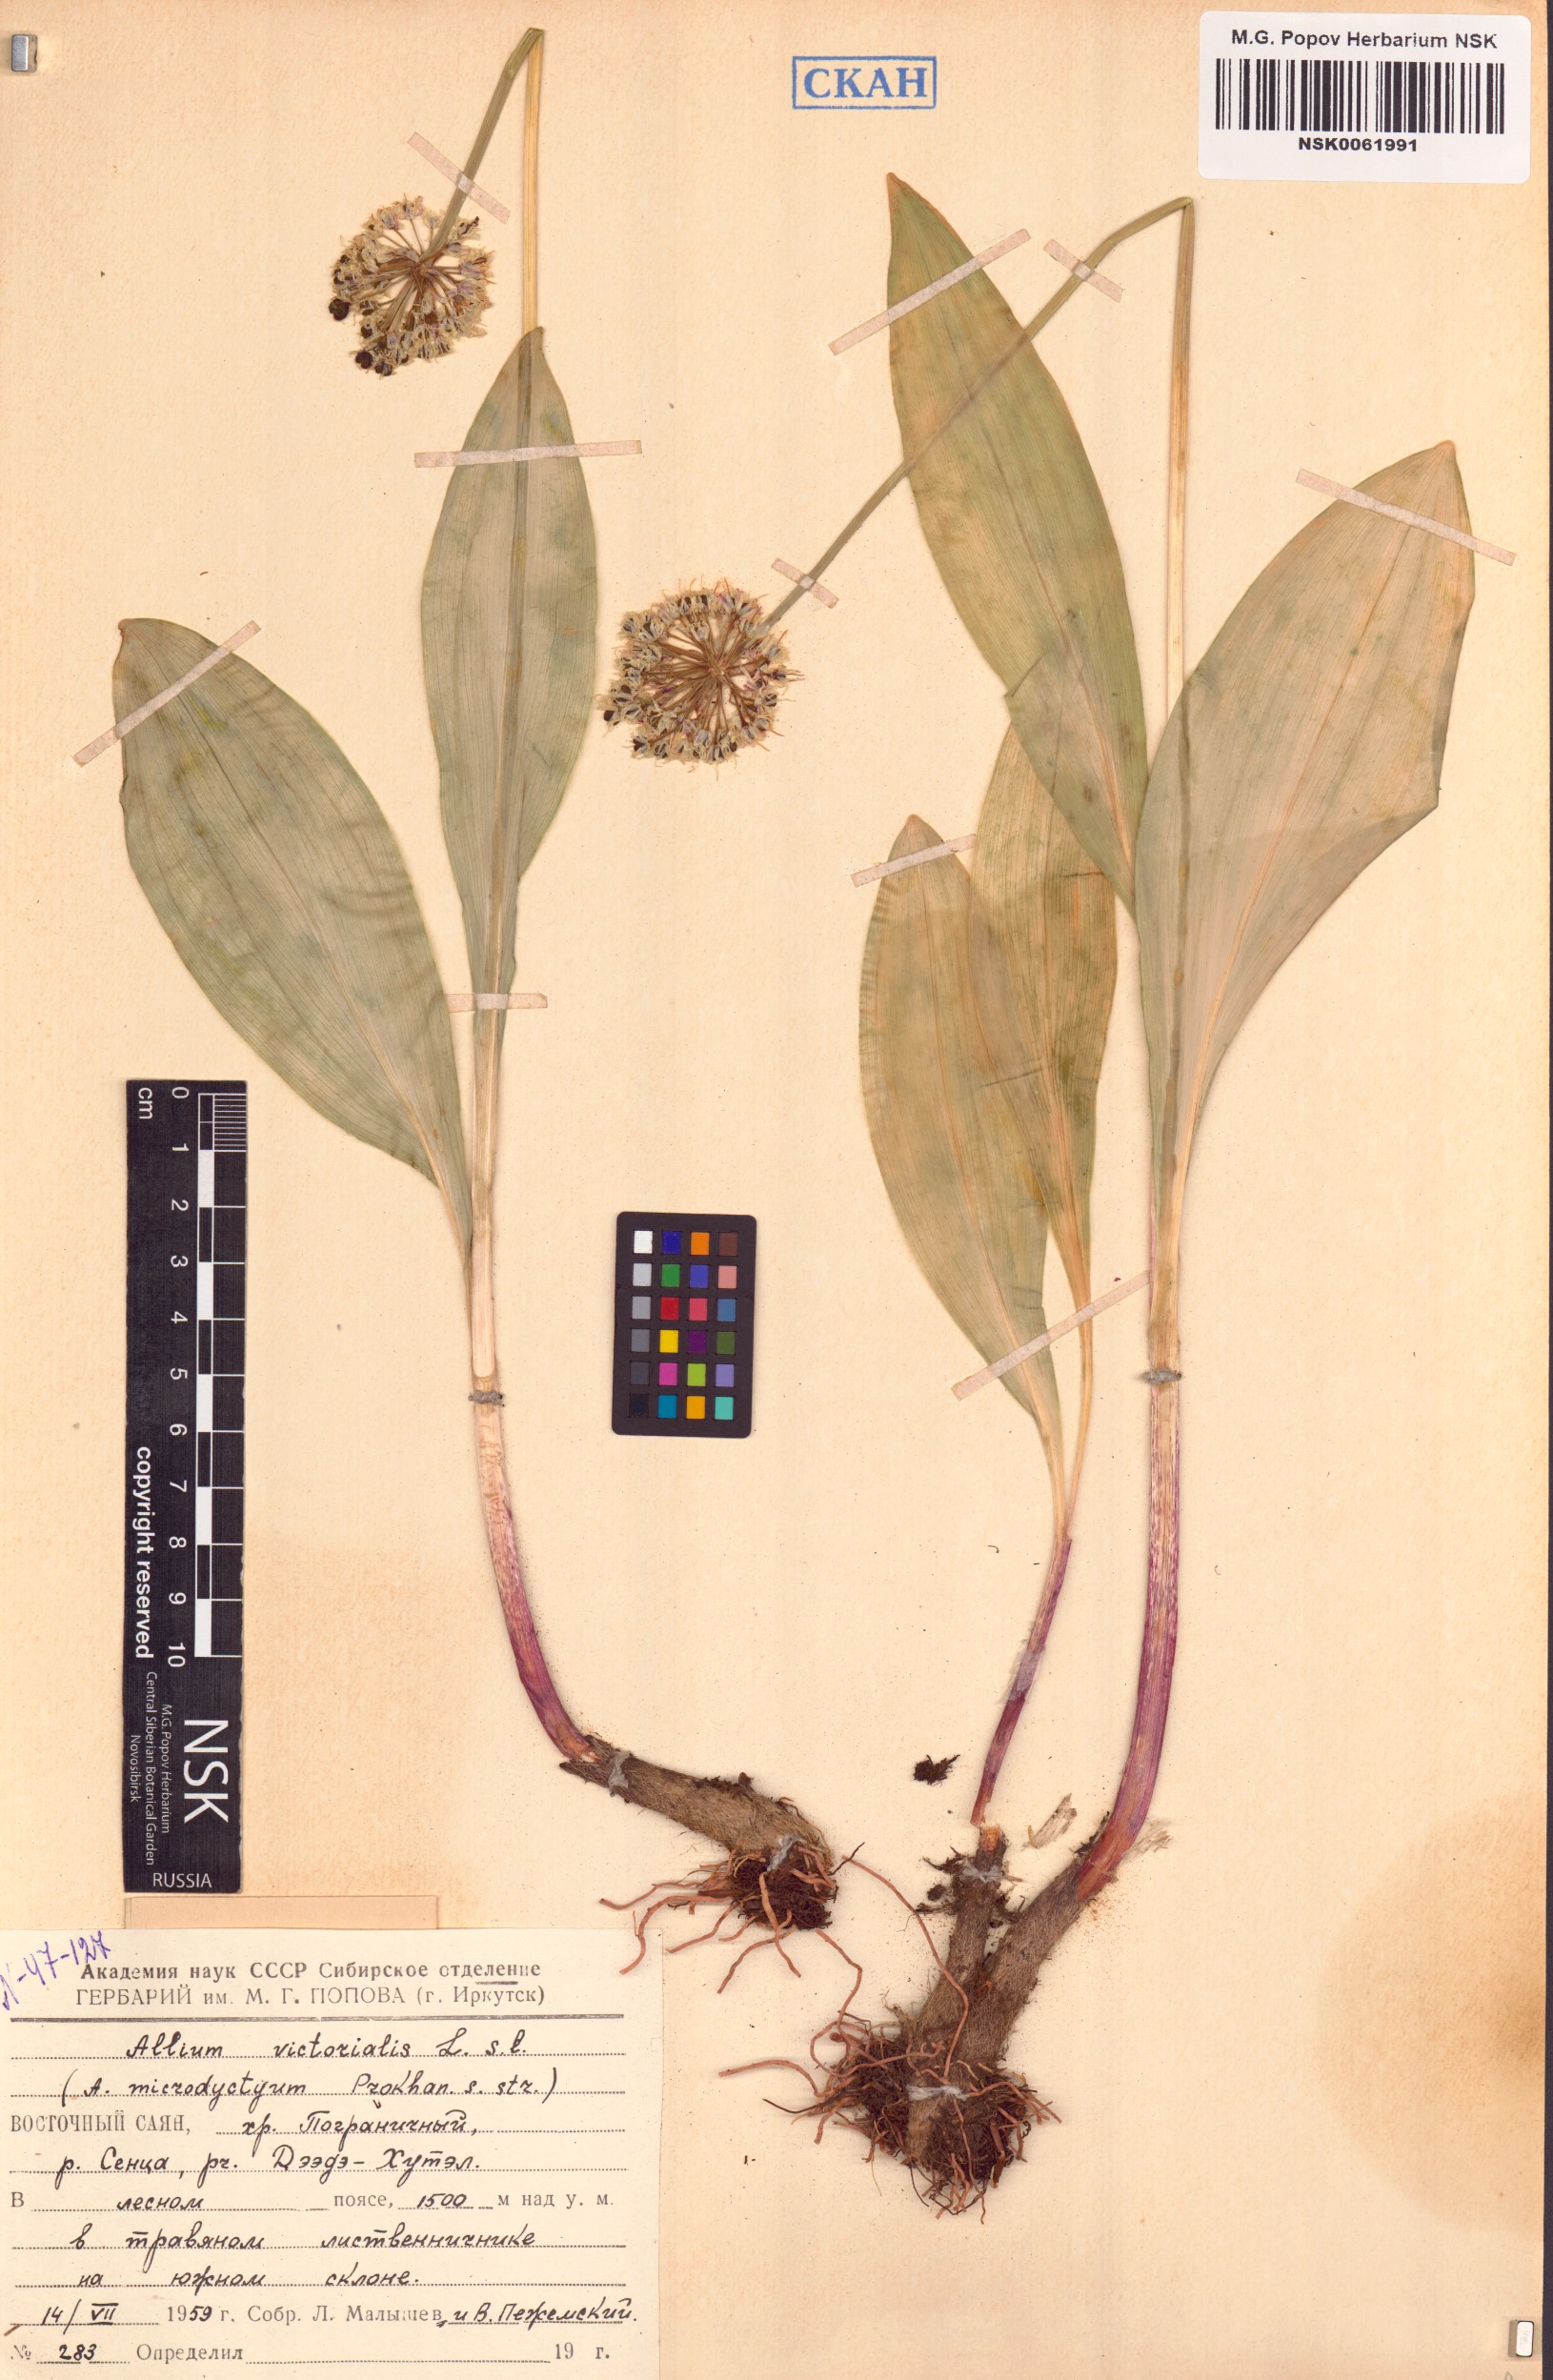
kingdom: Plantae
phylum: Tracheophyta
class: Liliopsida
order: Asparagales
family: Amaryllidaceae
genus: Allium
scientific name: Allium victorialis
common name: Alpine leek
